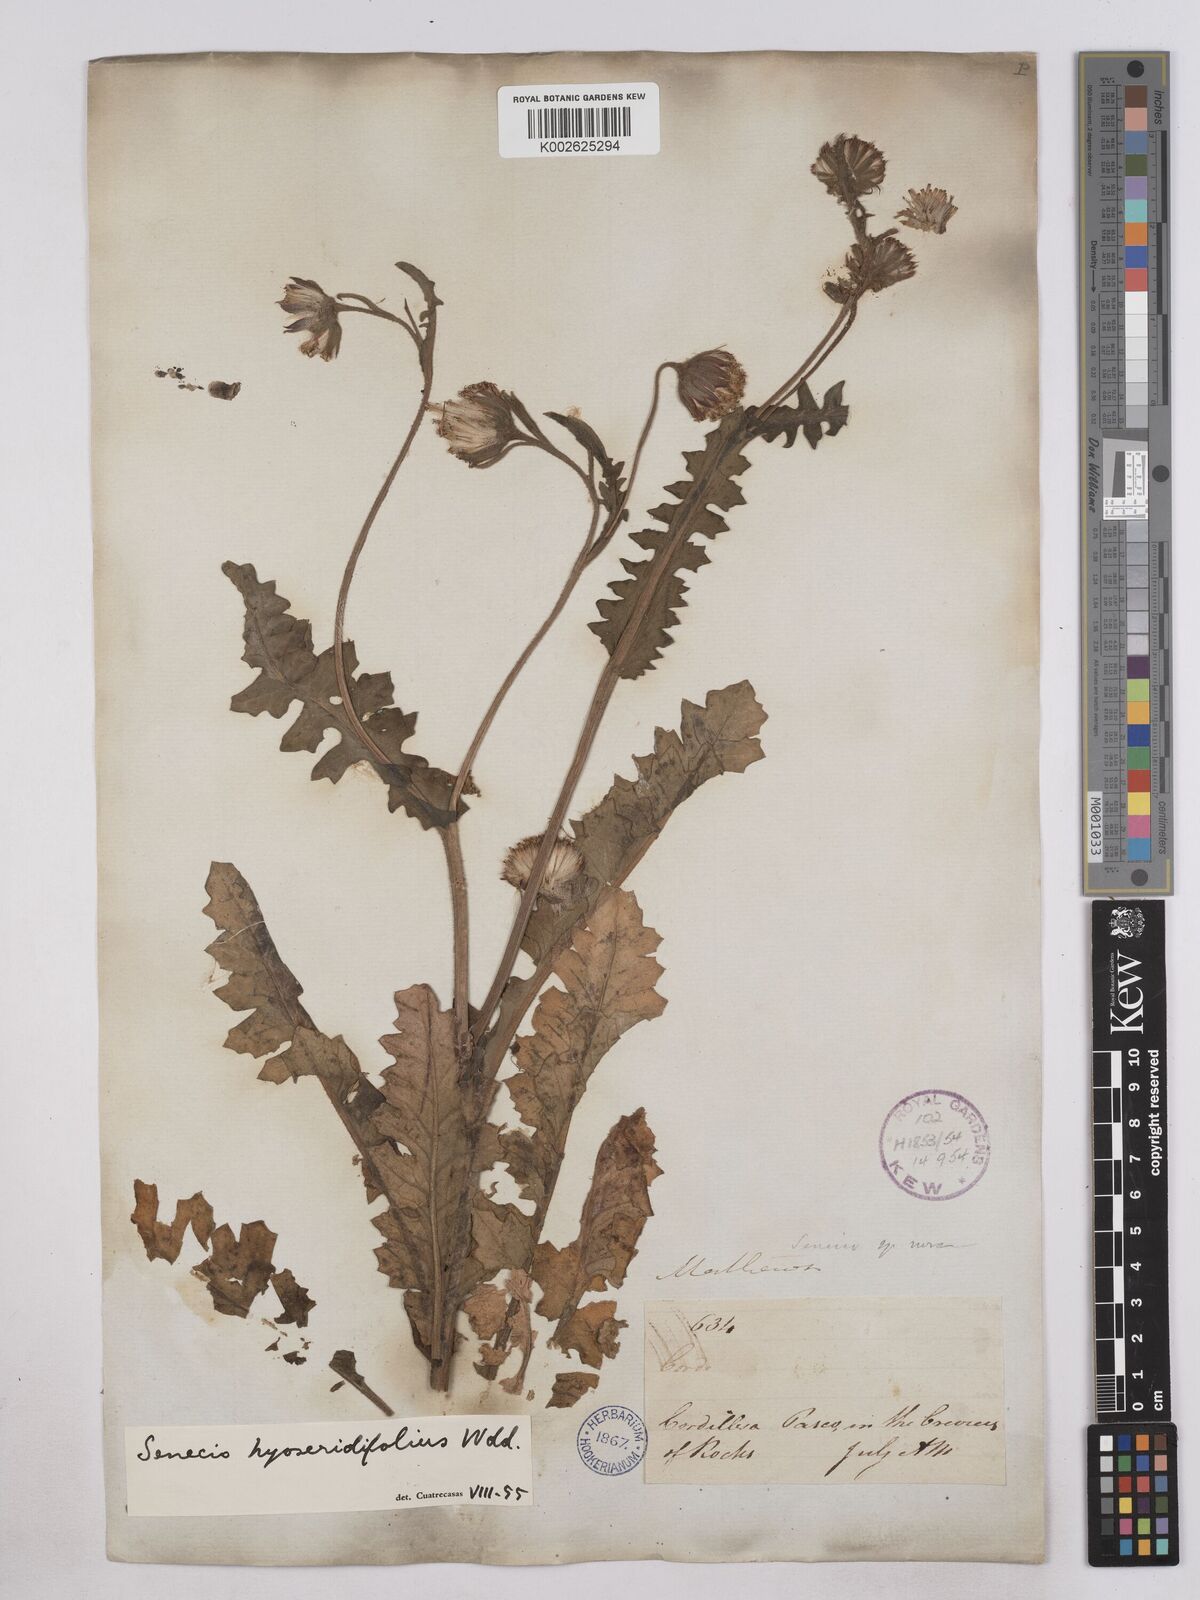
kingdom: Plantae
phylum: Tracheophyta
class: Magnoliopsida
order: Asterales
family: Asteraceae
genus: Senecio
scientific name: Senecio hyoseridifolius
